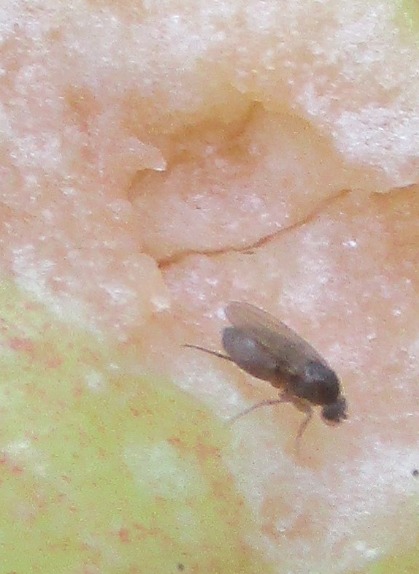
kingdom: Animalia
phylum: Arthropoda
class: Insecta
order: Diptera
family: Phoridae
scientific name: Phoridae
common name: Pukkelfluer
